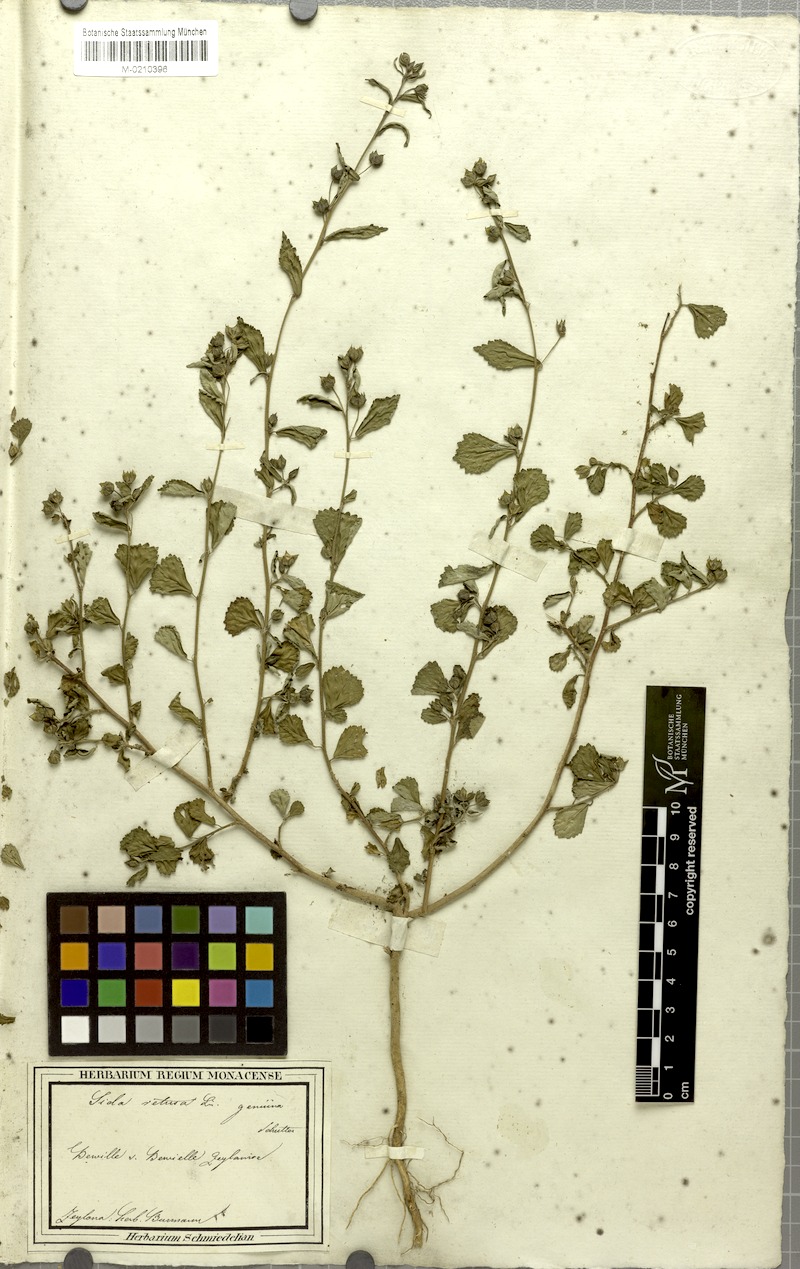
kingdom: Plantae
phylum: Tracheophyta
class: Magnoliopsida
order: Malvales
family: Malvaceae
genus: Sida
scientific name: Sida alnifolia
